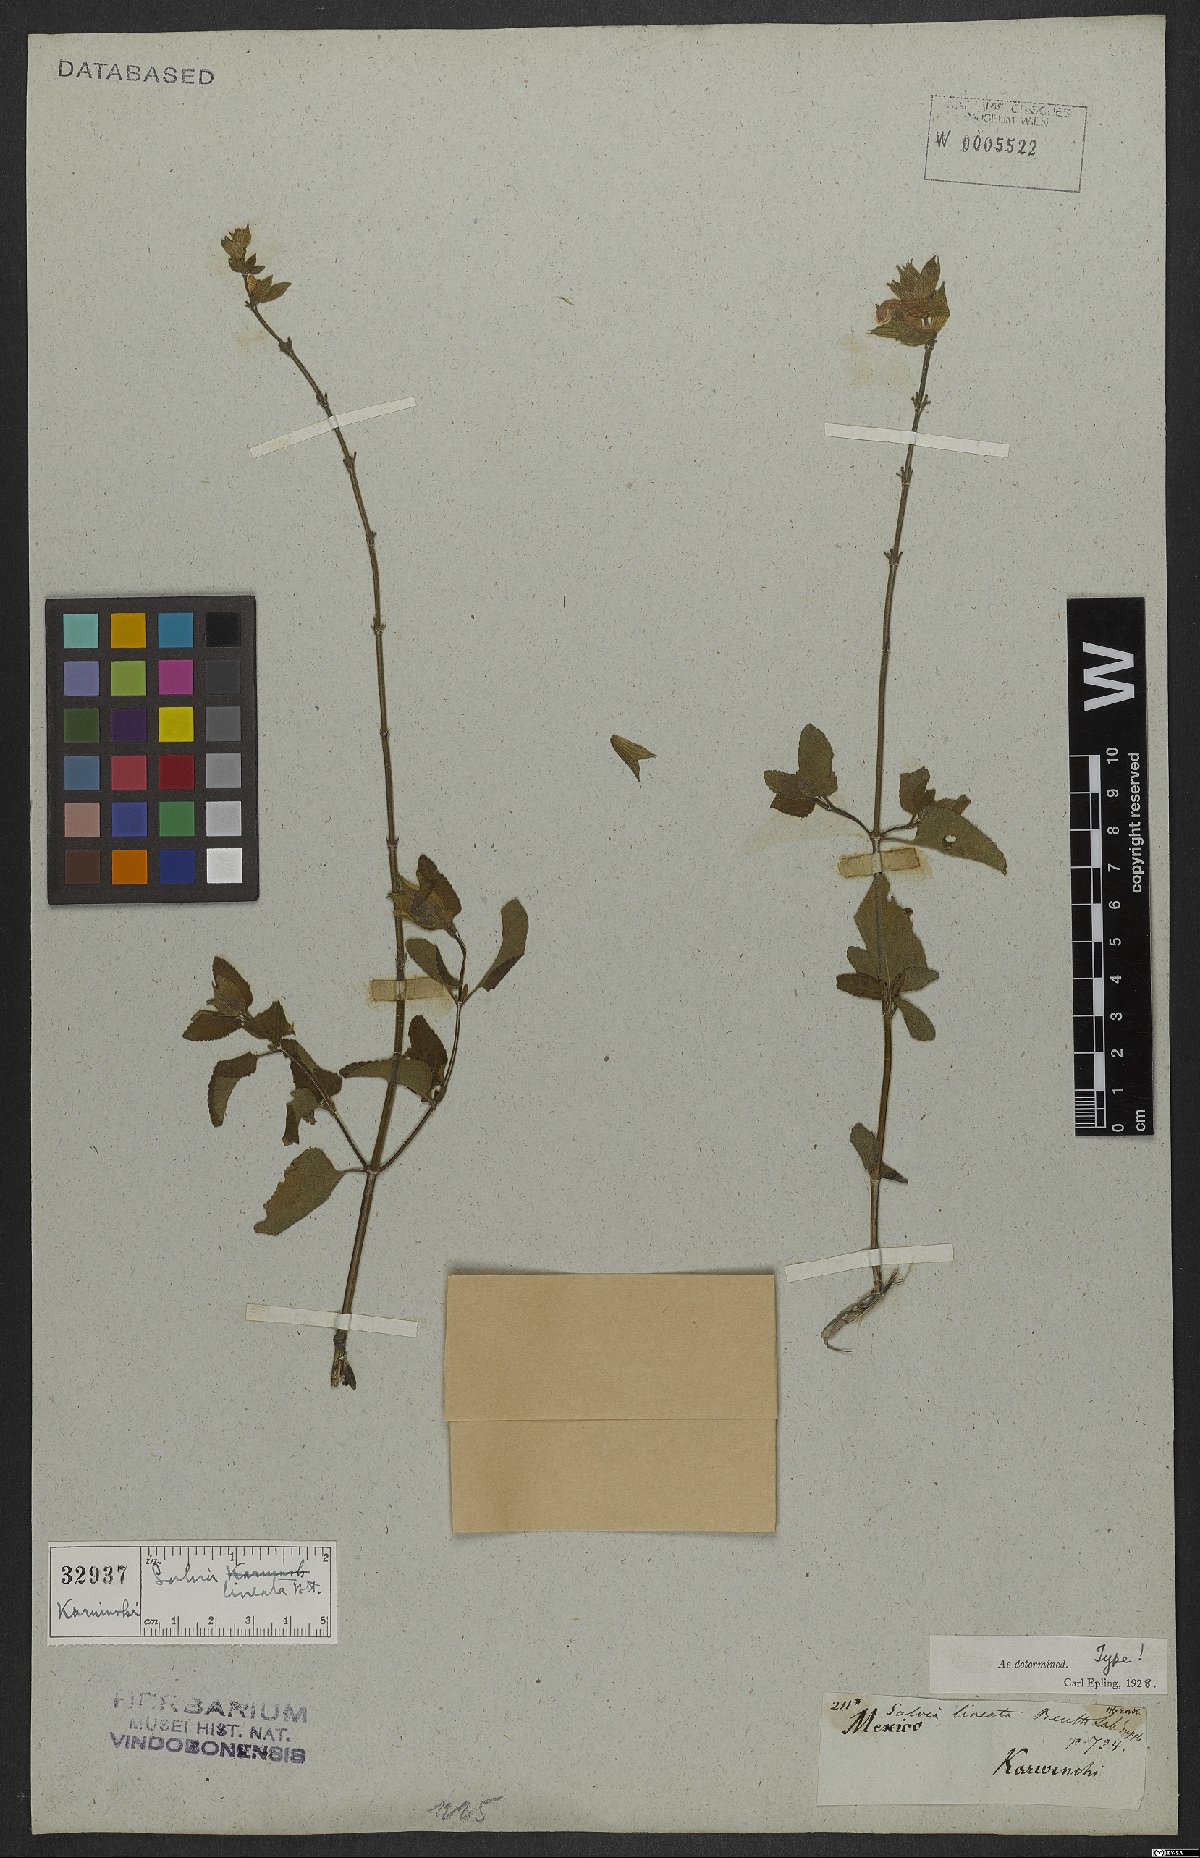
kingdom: Plantae
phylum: Tracheophyta
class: Magnoliopsida
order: Lamiales
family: Lamiaceae
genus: Salvia
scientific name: Salvia lineata
